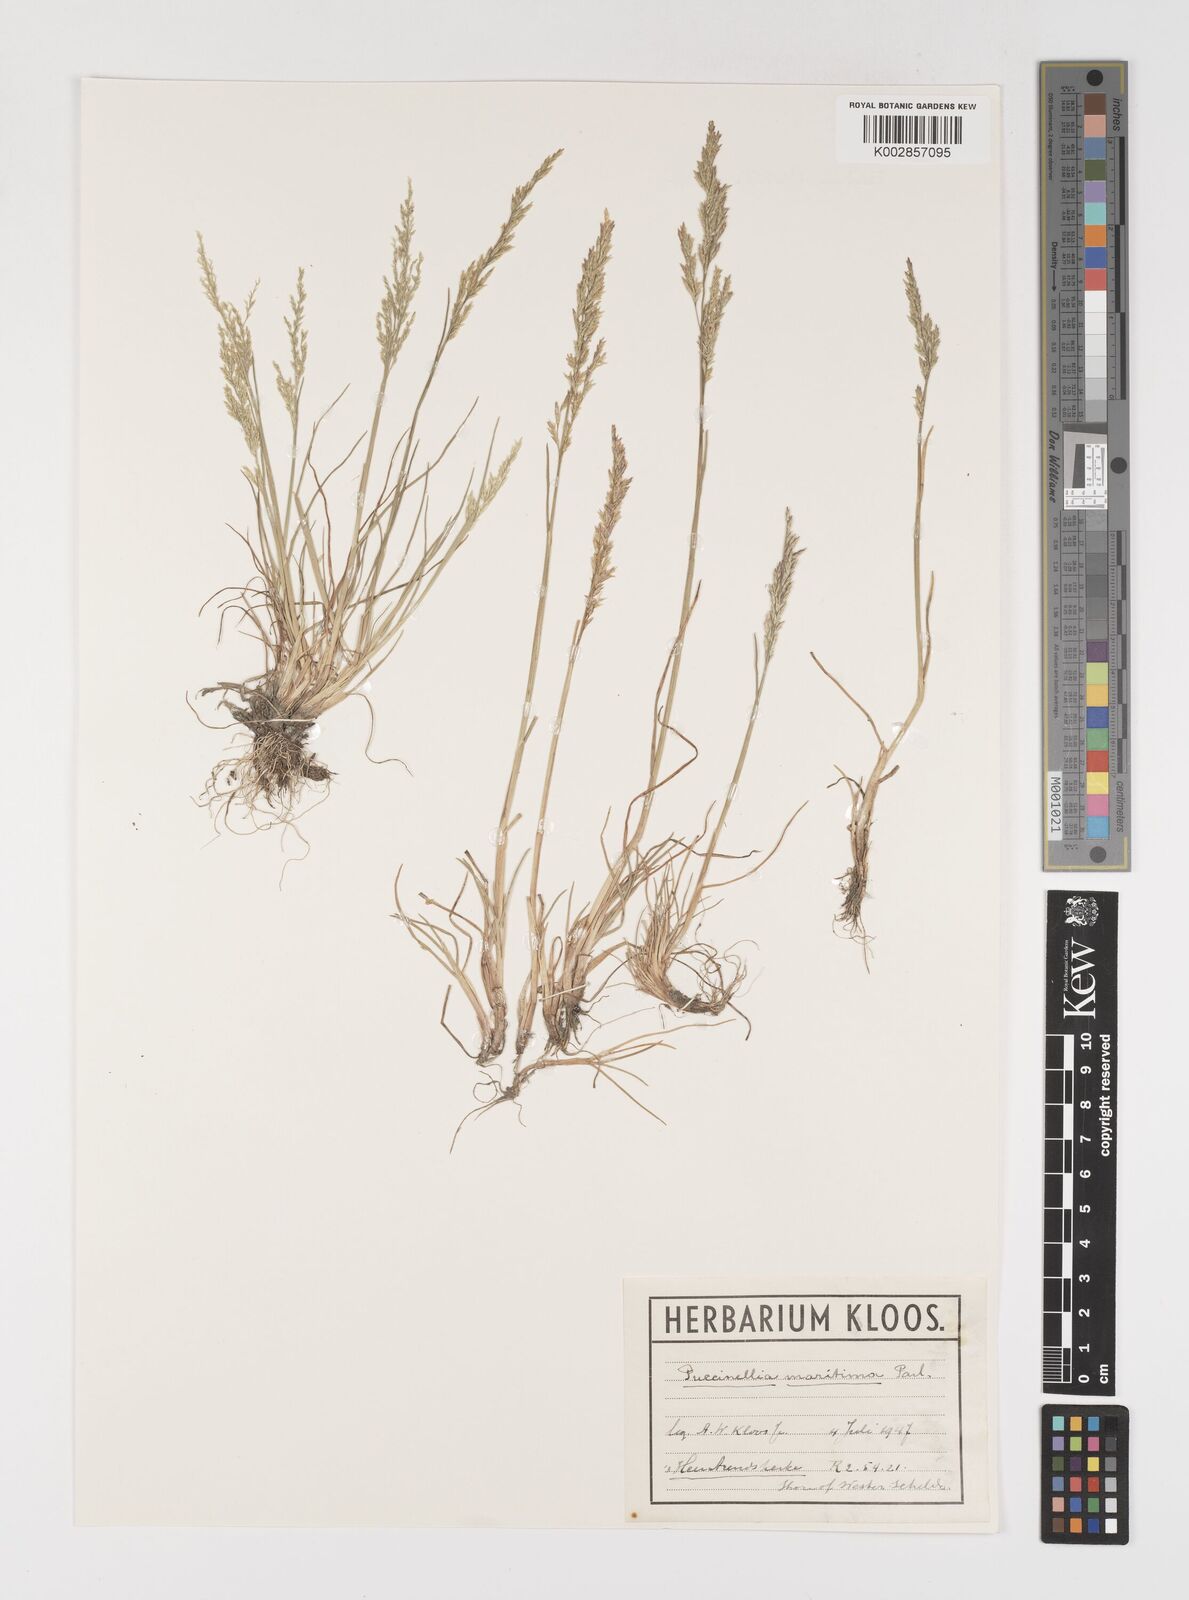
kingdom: Plantae
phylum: Tracheophyta
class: Liliopsida
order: Poales
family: Poaceae
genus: Puccinellia
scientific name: Puccinellia maritima
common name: Common saltmarsh grass
